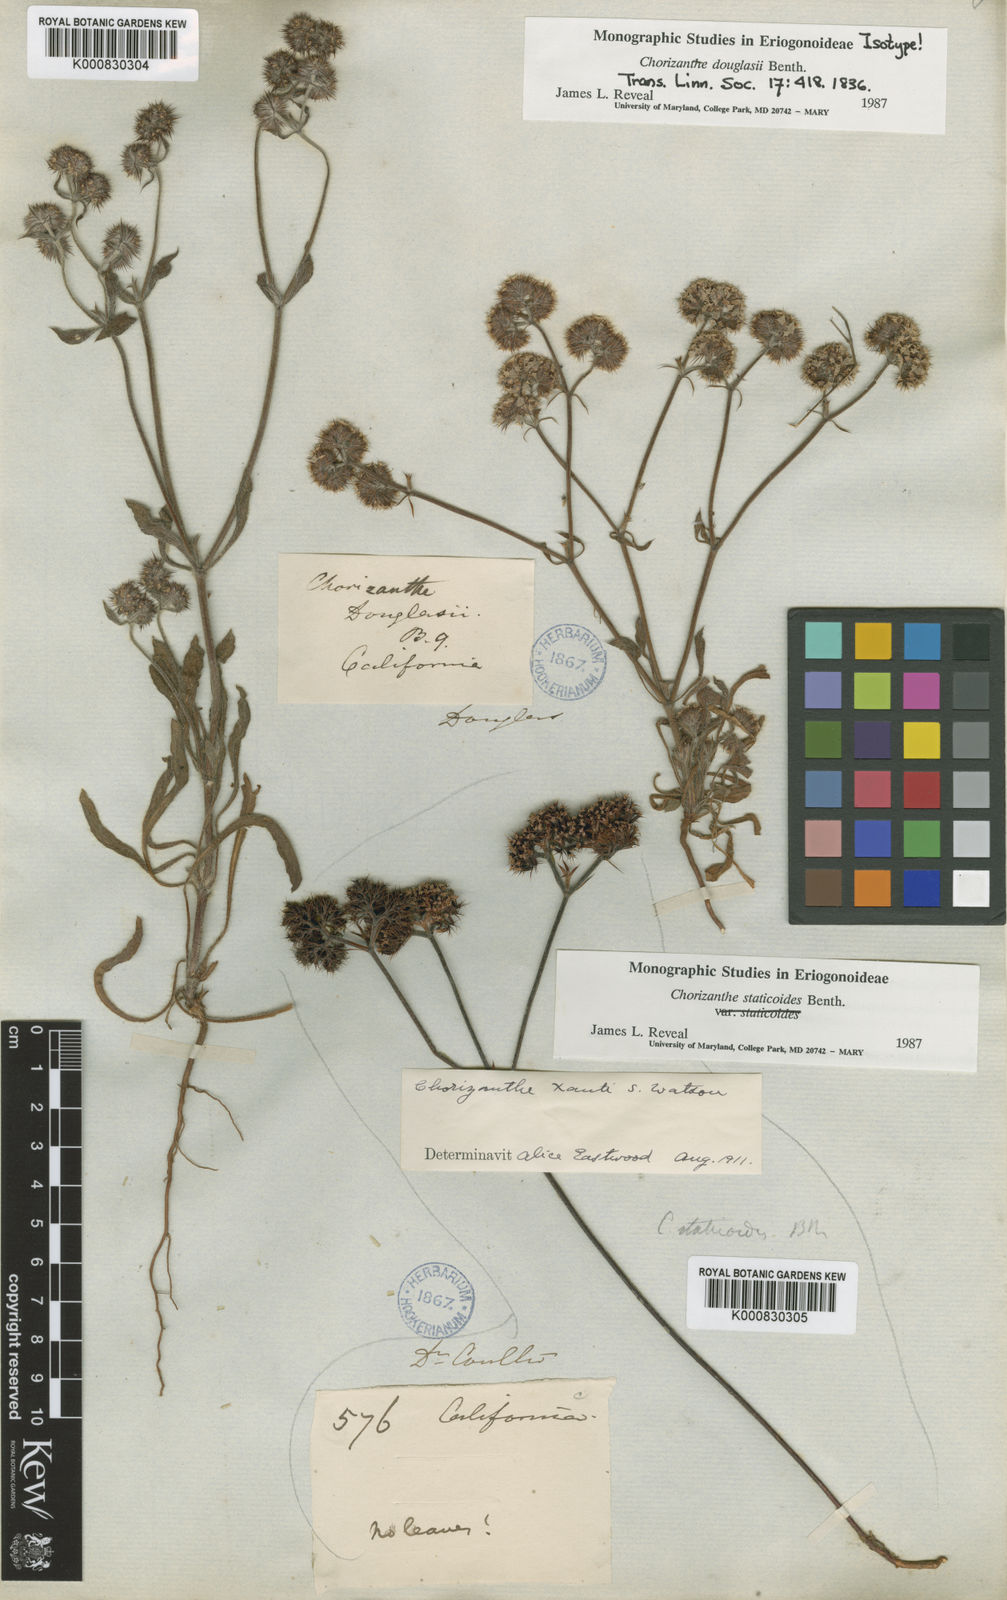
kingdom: Plantae
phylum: Tracheophyta
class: Magnoliopsida
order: Caryophyllales
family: Polygonaceae
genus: Chorizanthe
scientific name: Chorizanthe douglasii
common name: Douglas's spineflower
